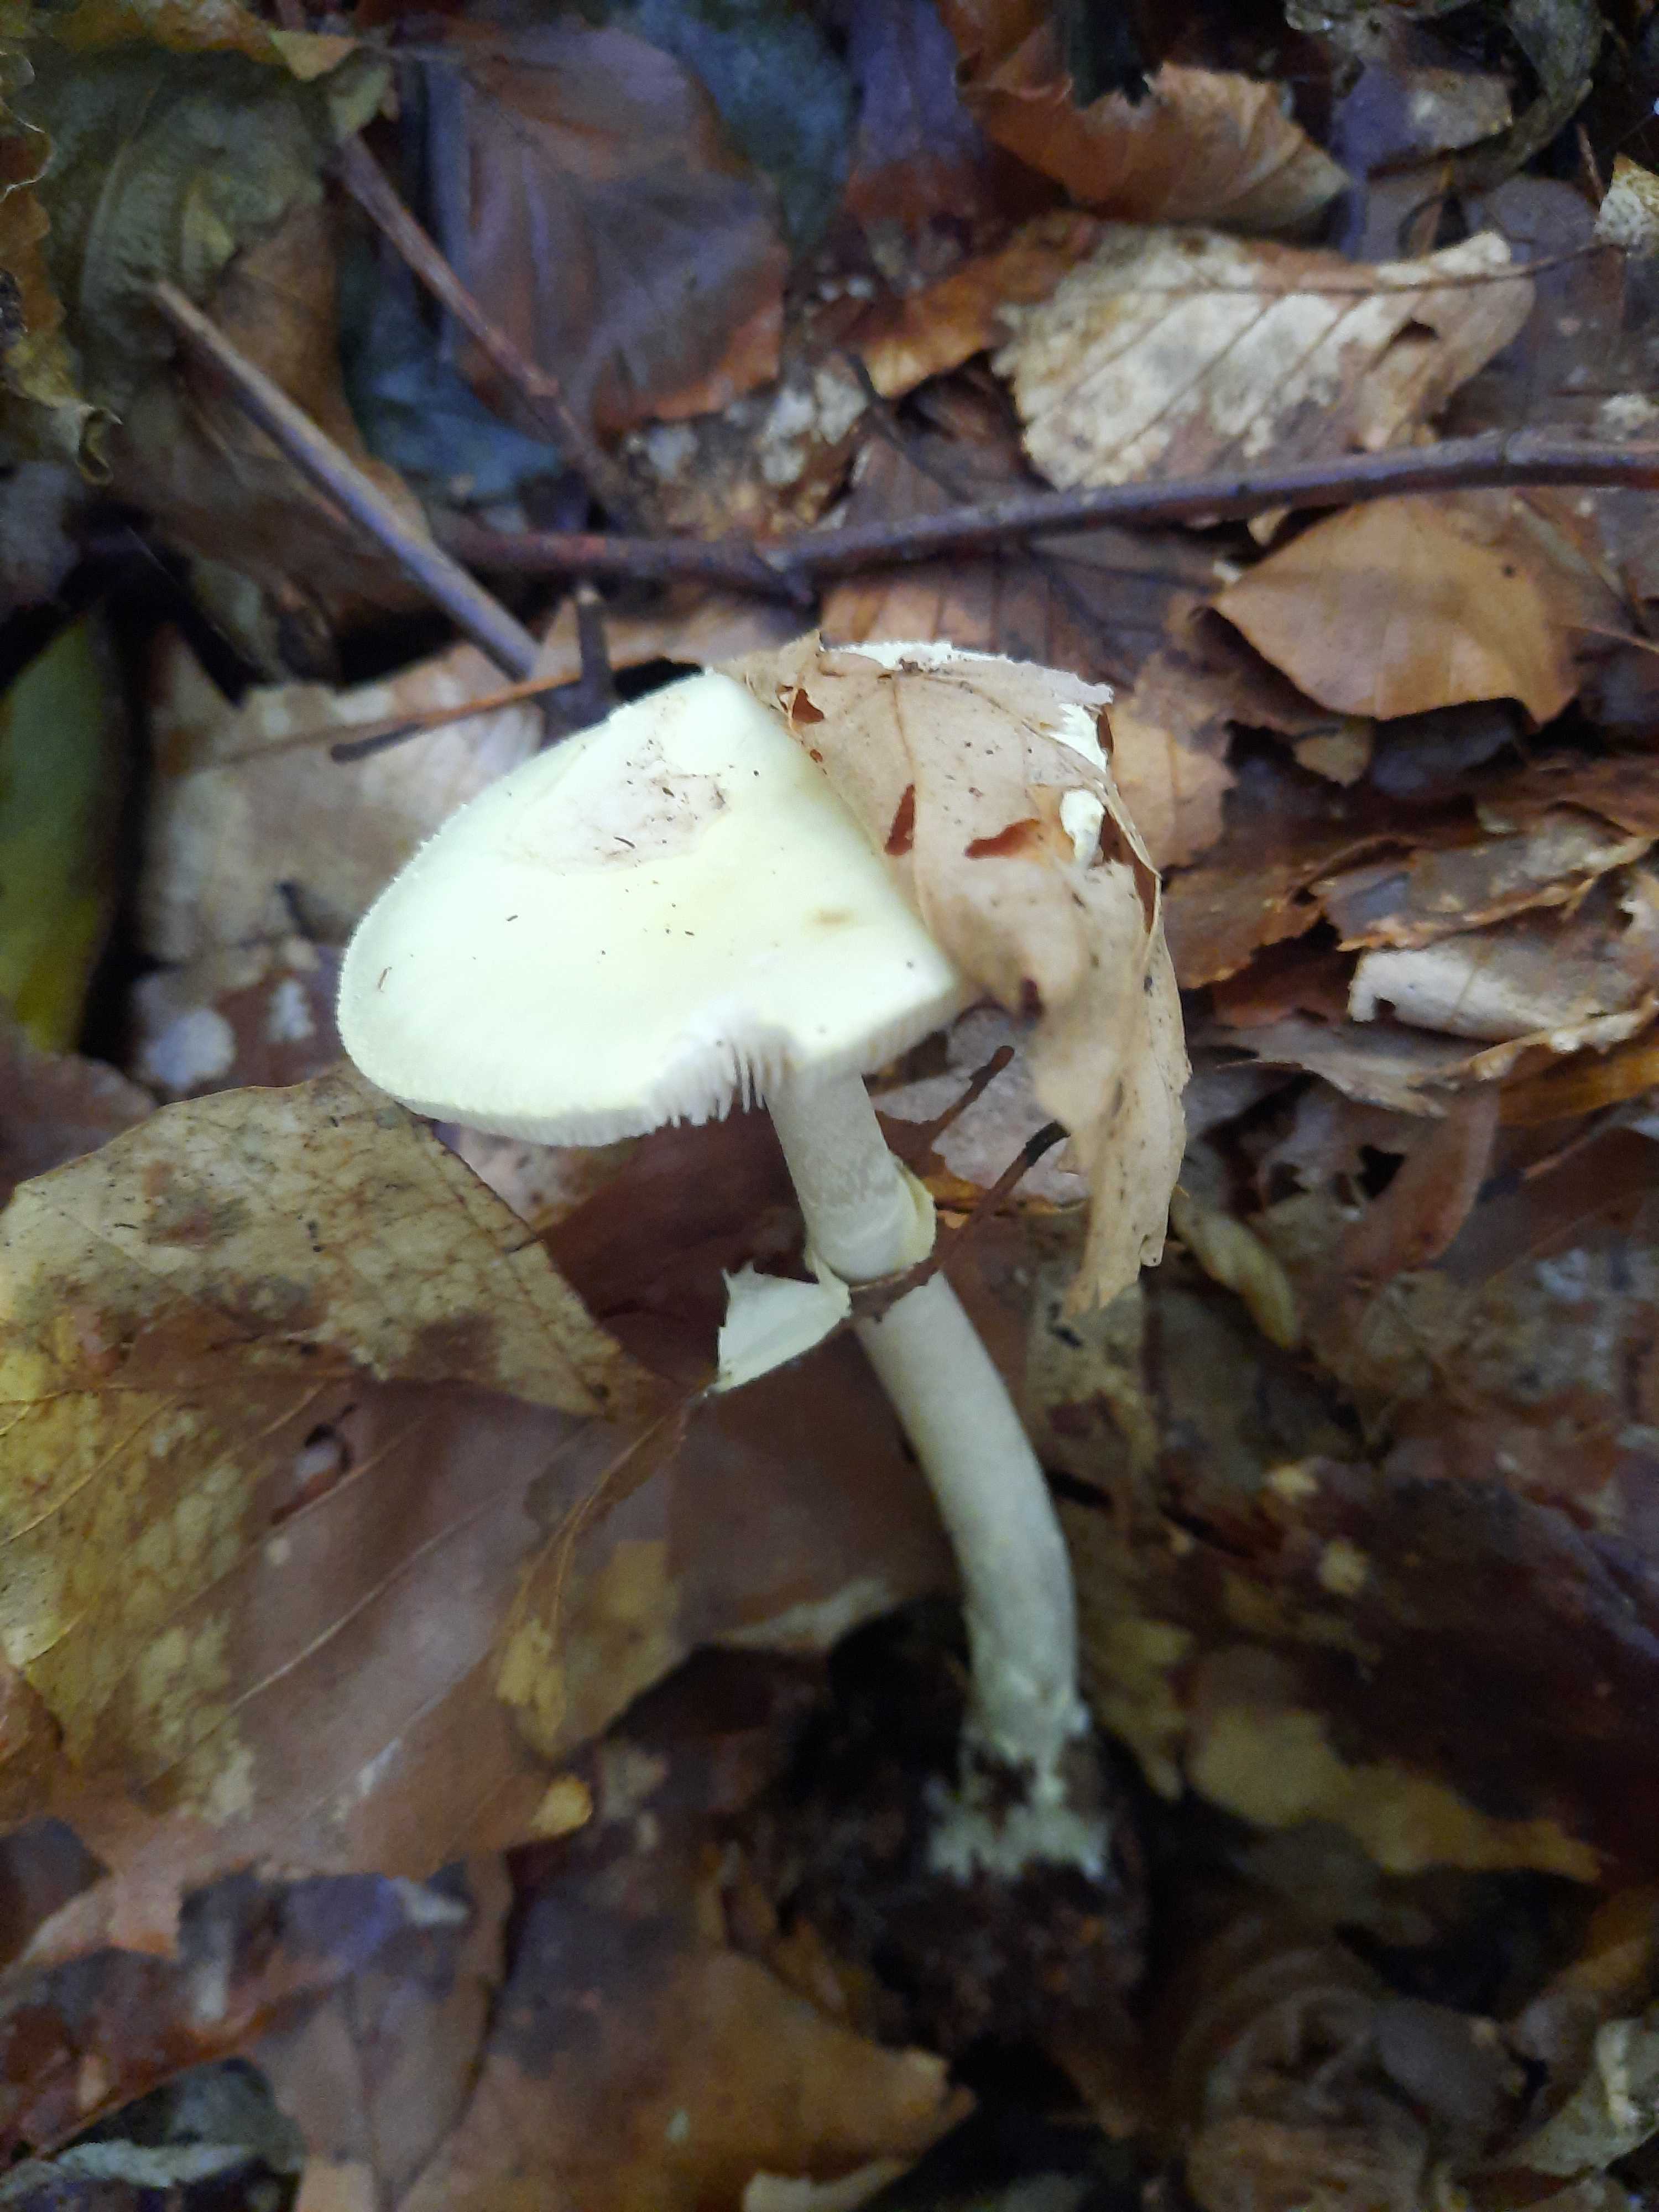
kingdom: Fungi
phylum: Basidiomycota
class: Agaricomycetes
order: Agaricales
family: Amanitaceae
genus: Amanita
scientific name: Amanita citrina
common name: kugleknoldet fluesvamp
